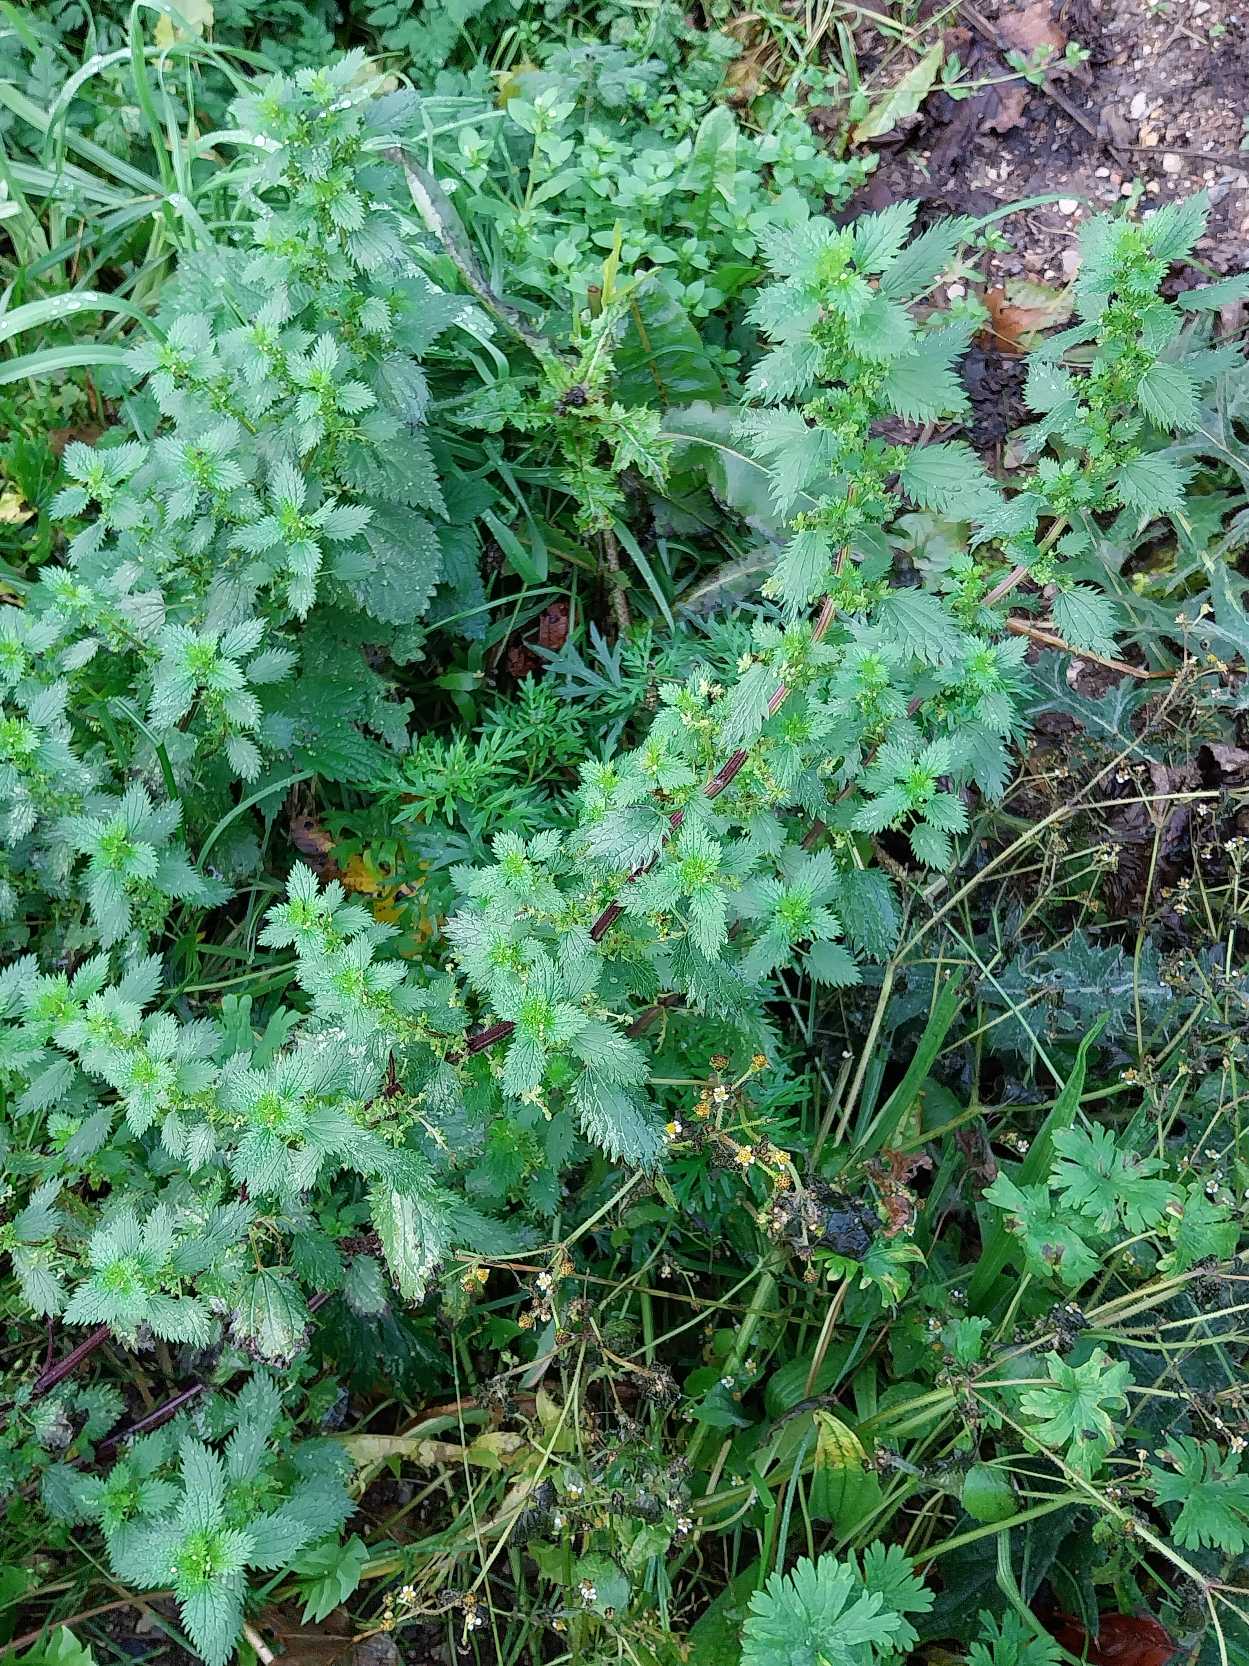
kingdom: Plantae
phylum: Tracheophyta
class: Magnoliopsida
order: Rosales
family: Urticaceae
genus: Urtica
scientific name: Urtica urens
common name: Liden nælde
